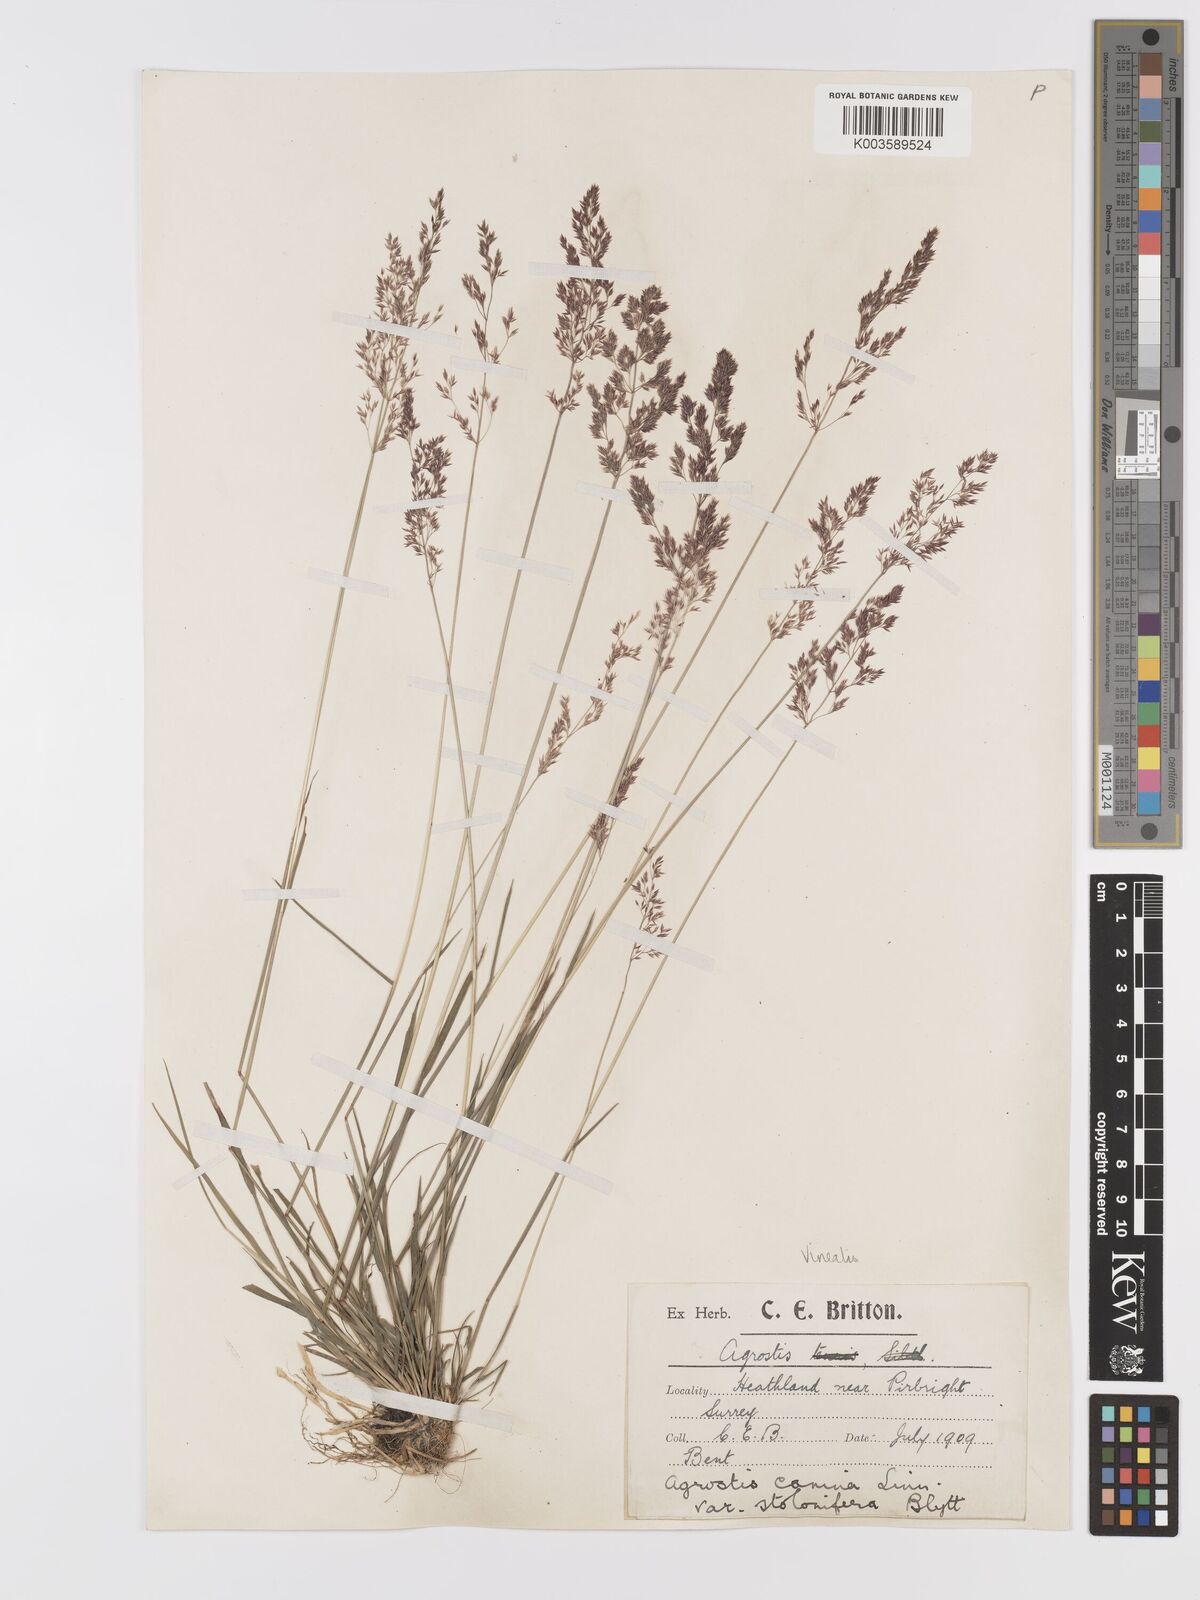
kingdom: Plantae
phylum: Tracheophyta
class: Liliopsida
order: Poales
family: Poaceae
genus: Agrostis
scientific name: Agrostis
